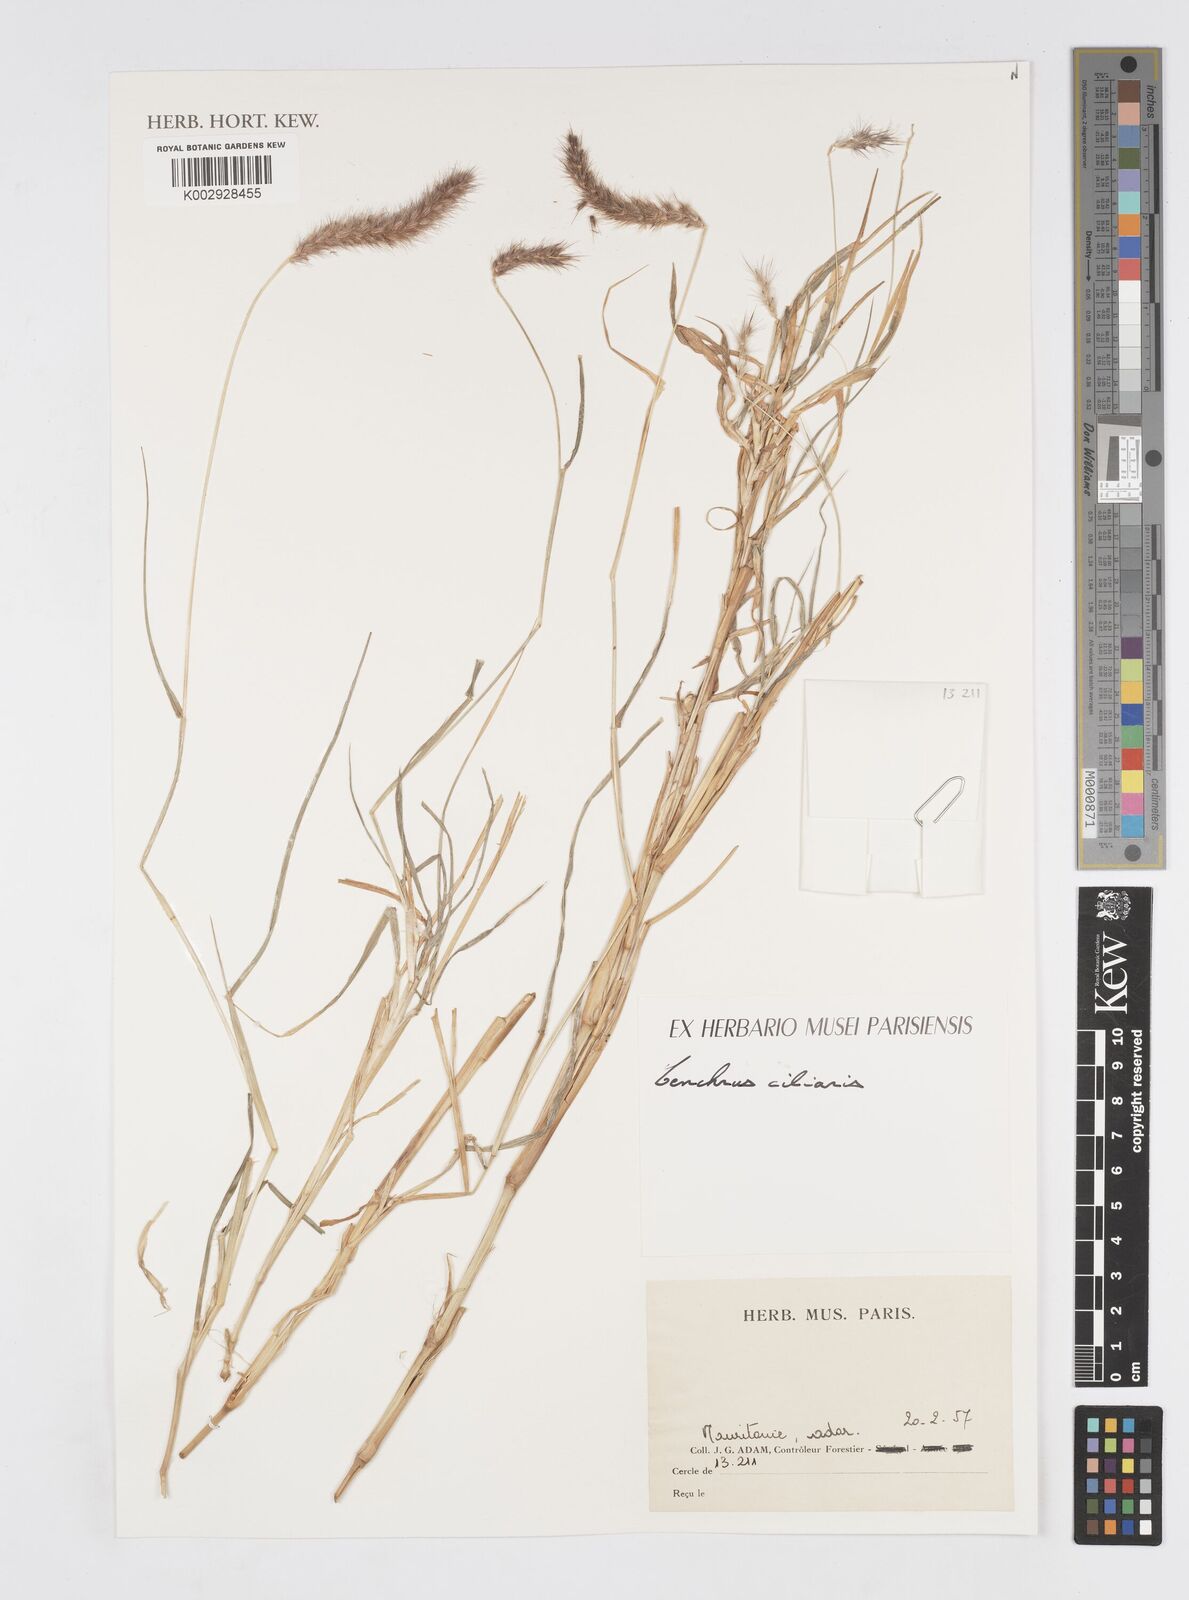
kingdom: Plantae
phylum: Tracheophyta
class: Liliopsida
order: Poales
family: Poaceae
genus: Cenchrus
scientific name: Cenchrus ciliaris
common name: Buffelgrass
